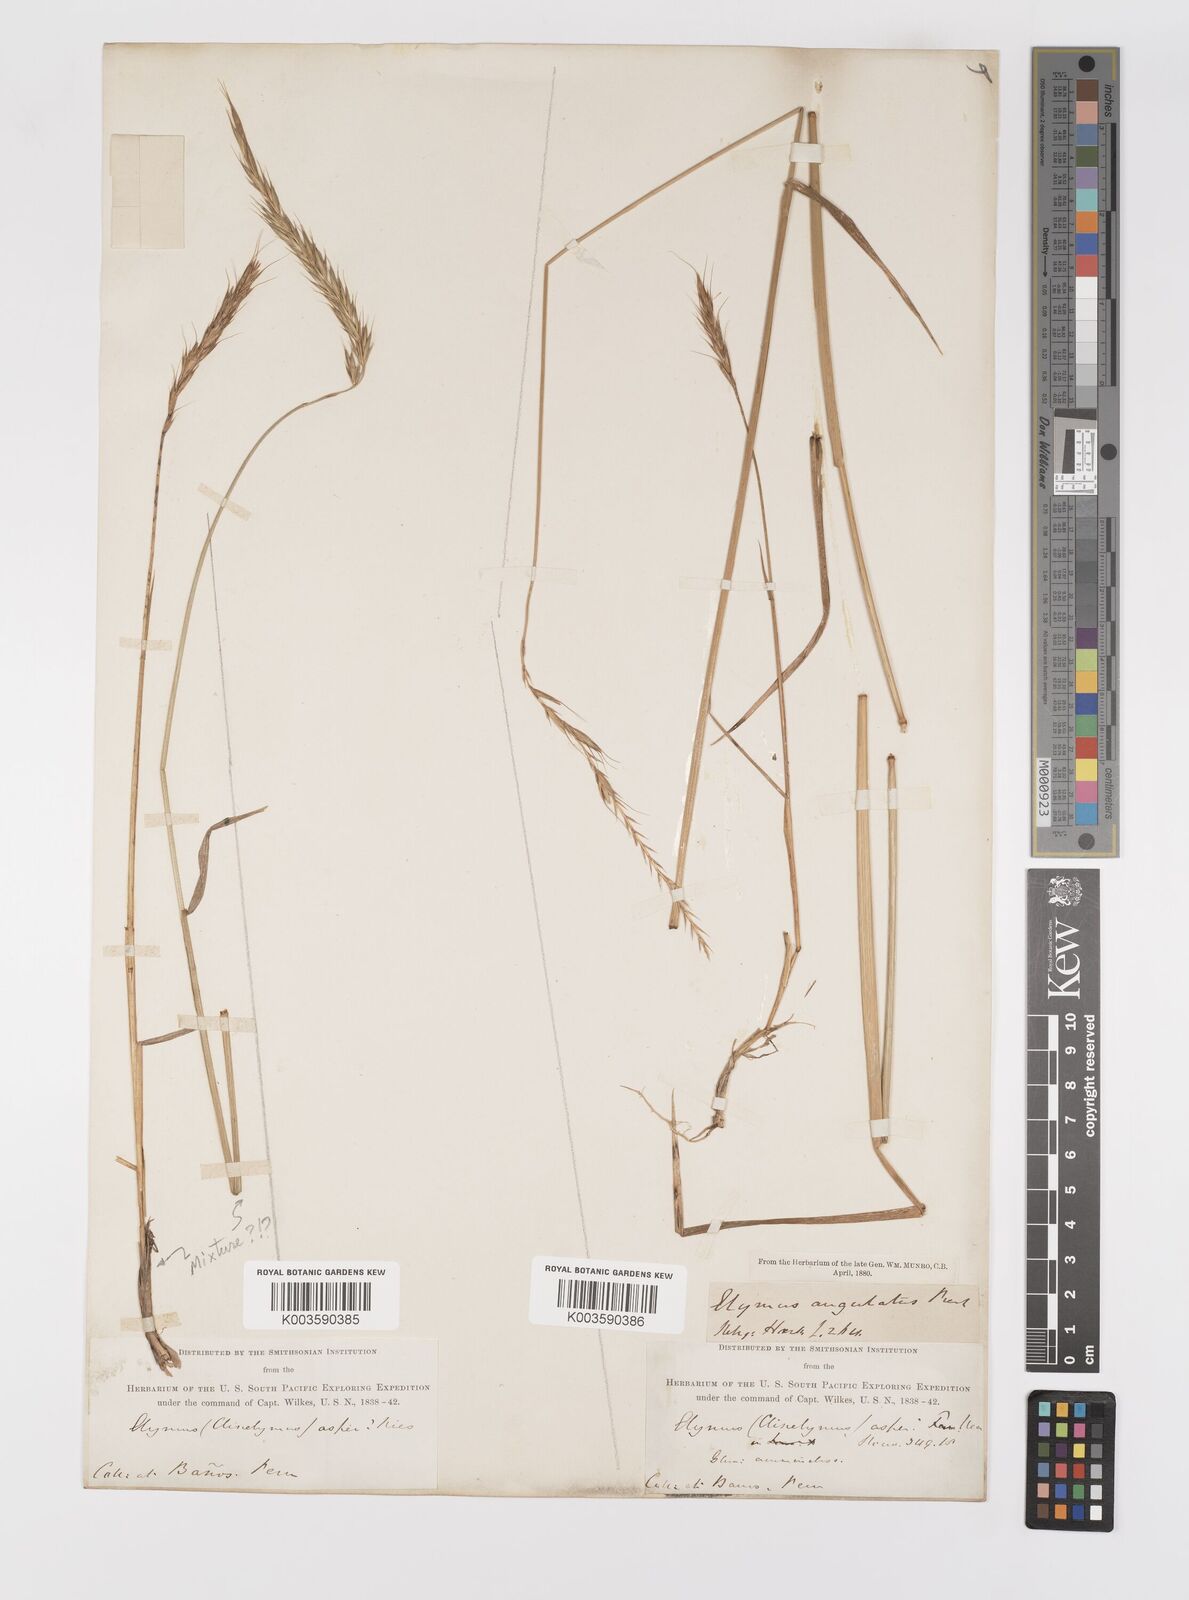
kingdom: Plantae
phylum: Tracheophyta
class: Liliopsida
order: Poales
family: Poaceae
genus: Elymus
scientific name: Elymus angulatus
